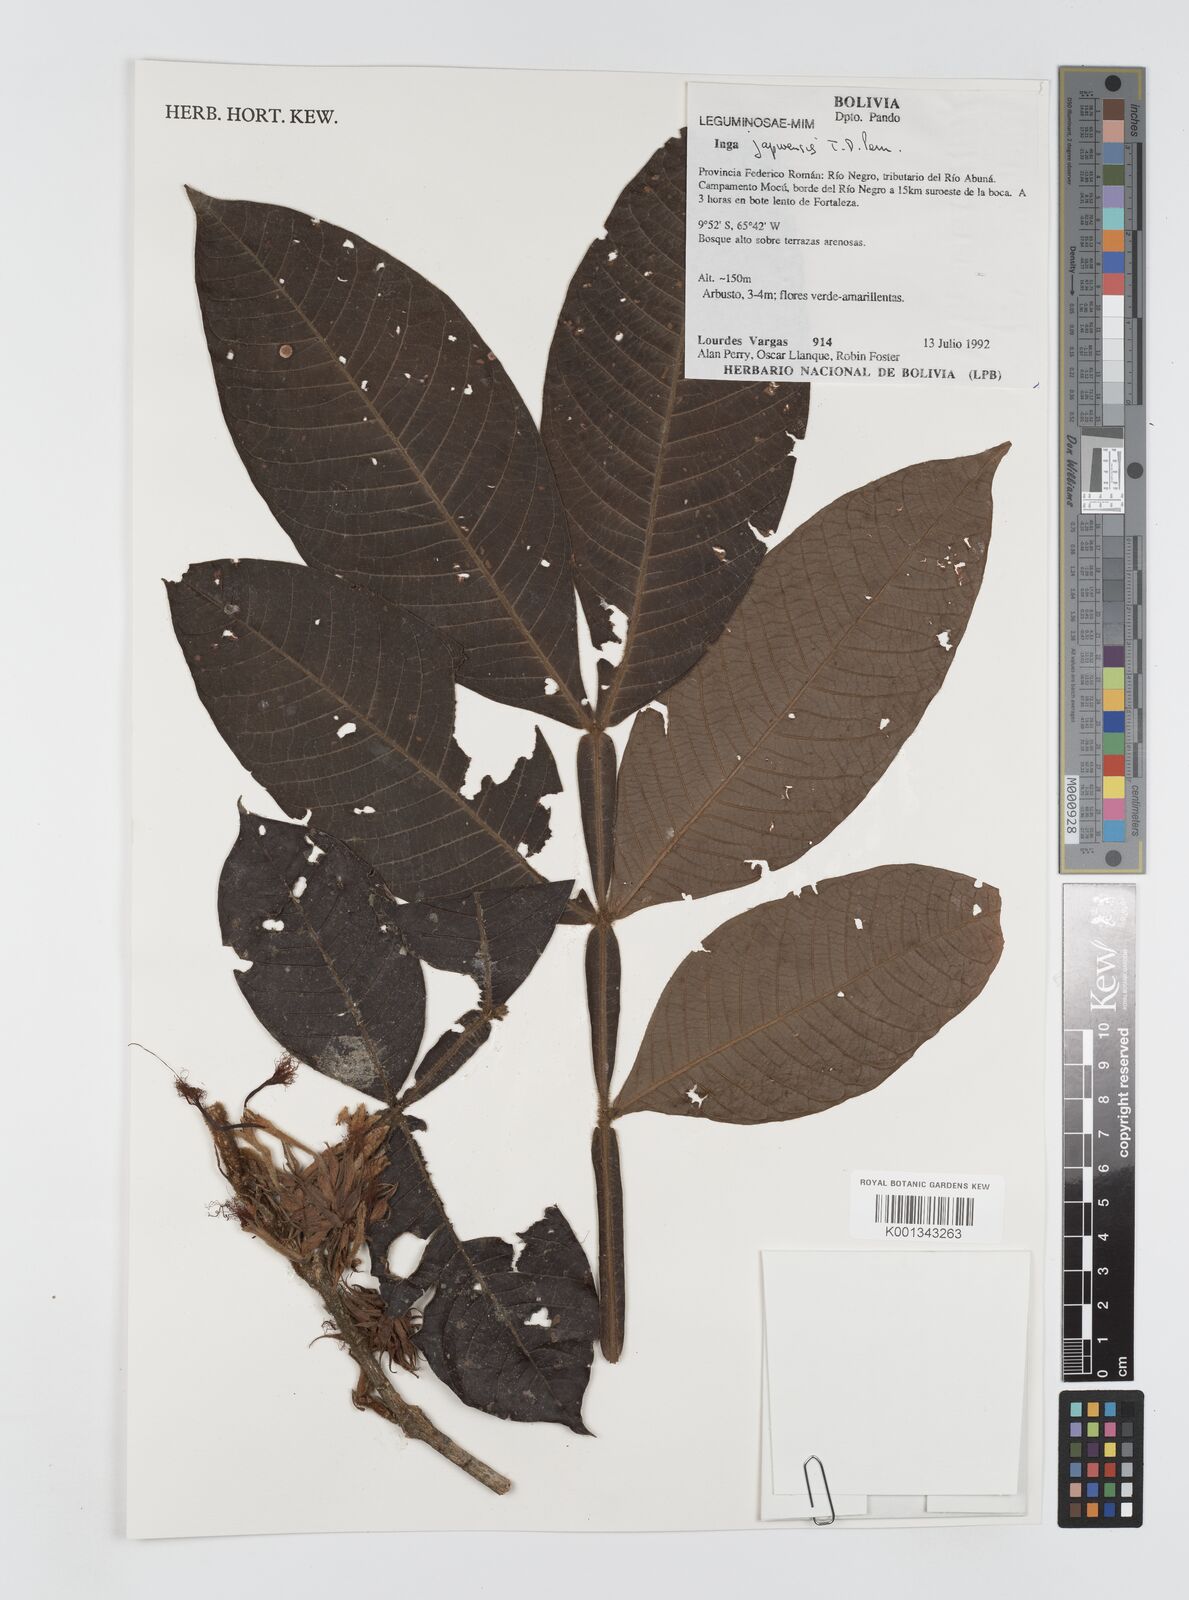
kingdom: Plantae
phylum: Tracheophyta
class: Magnoliopsida
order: Fabales
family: Fabaceae
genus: Inga
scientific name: Inga japurensis
